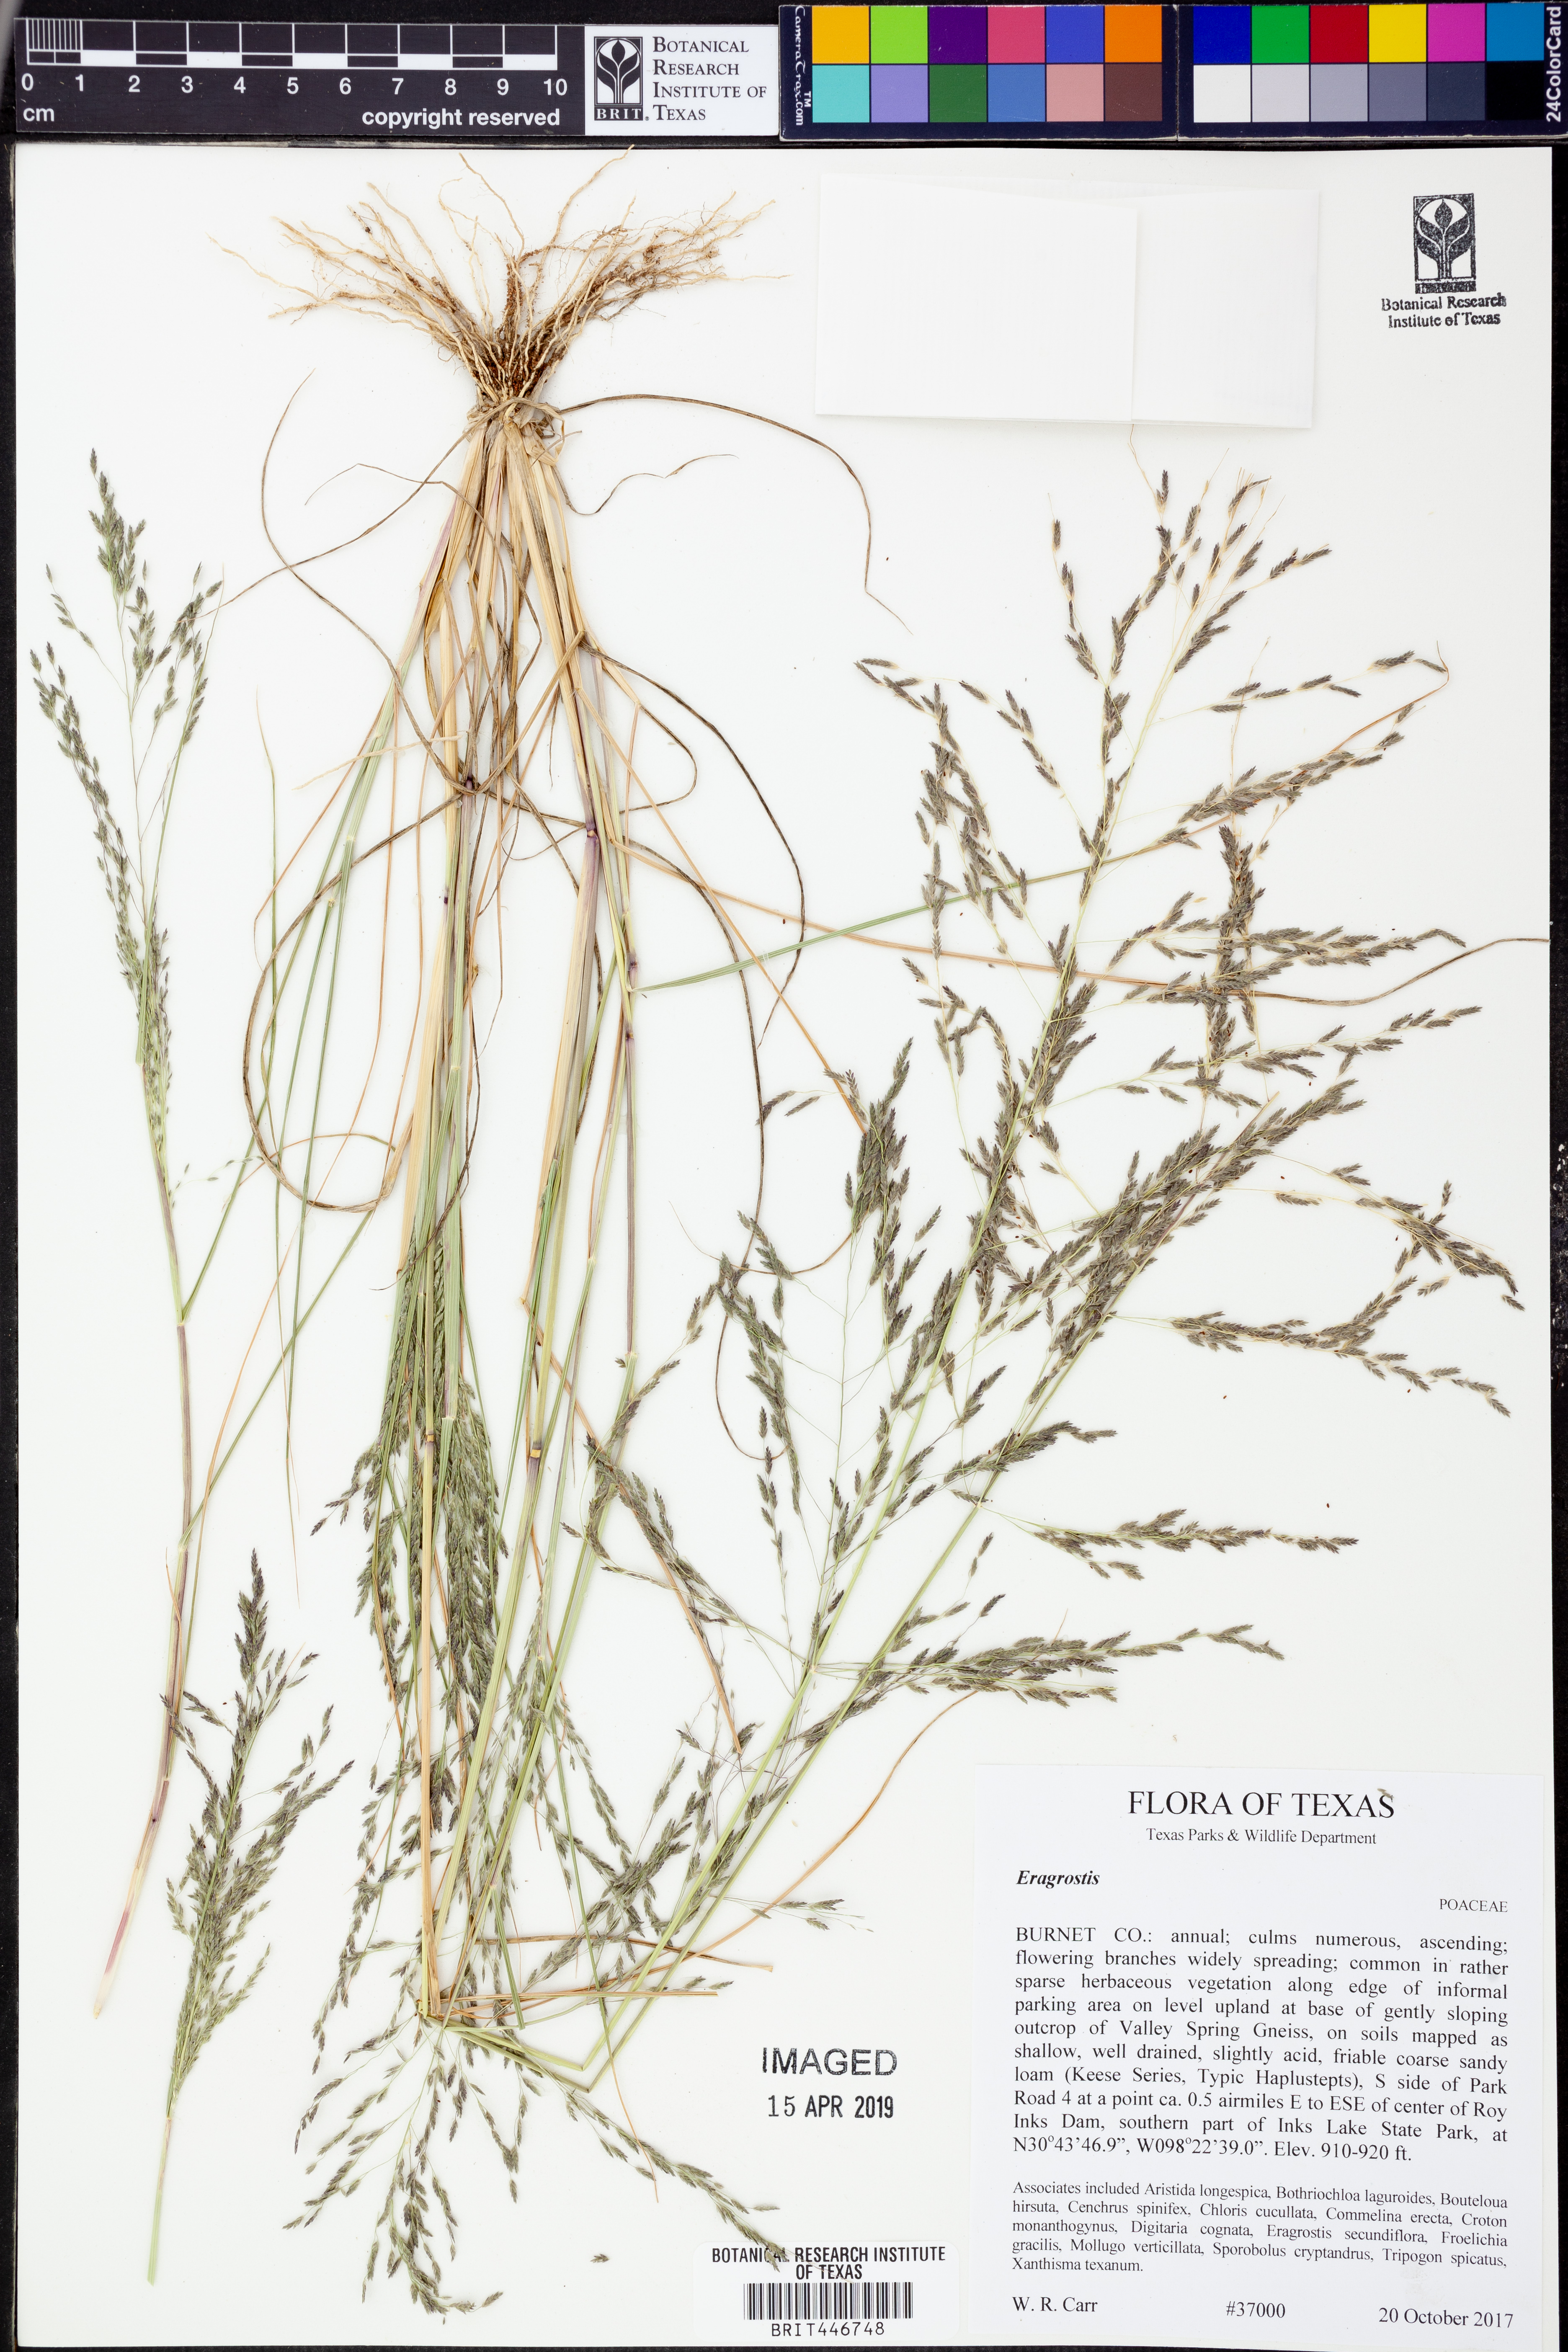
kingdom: Plantae
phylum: Tracheophyta
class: Liliopsida
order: Poales
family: Poaceae
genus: Eragrostis
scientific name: Eragrostis
